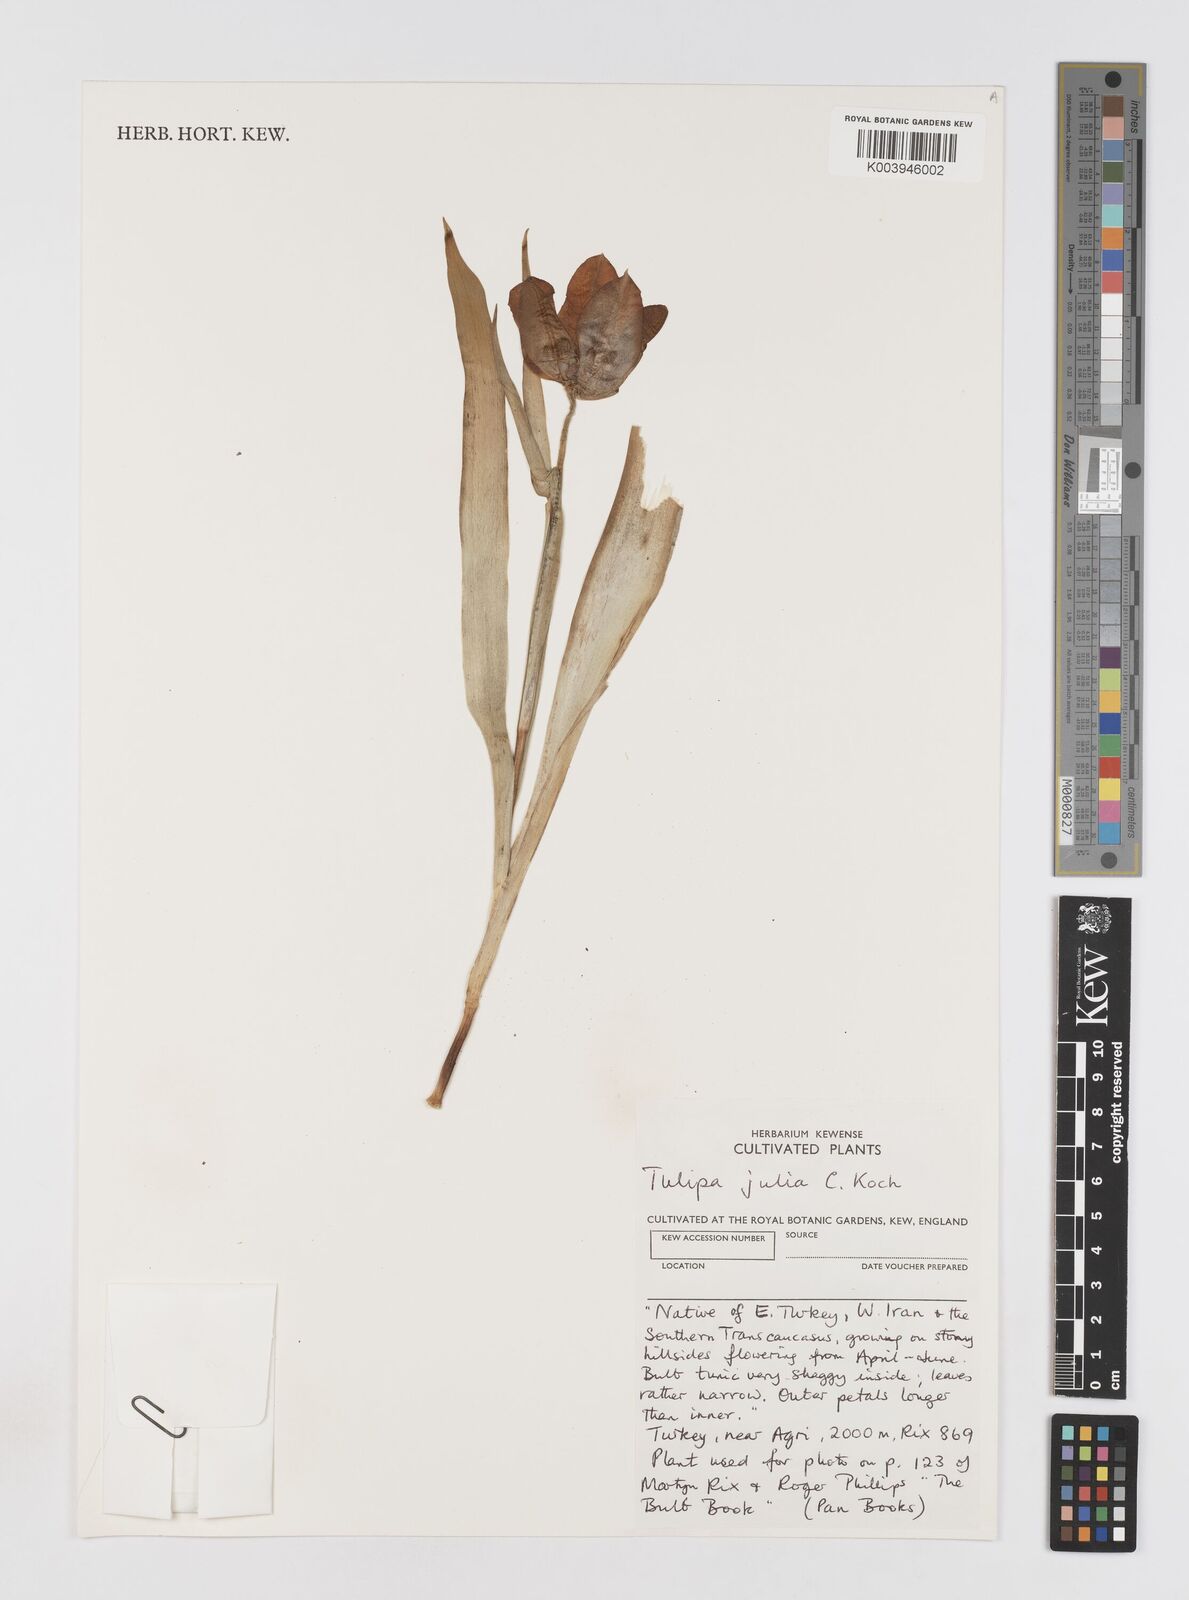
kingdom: Plantae
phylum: Tracheophyta
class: Liliopsida
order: Liliales
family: Liliaceae
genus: Tulipa
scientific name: Tulipa julia
